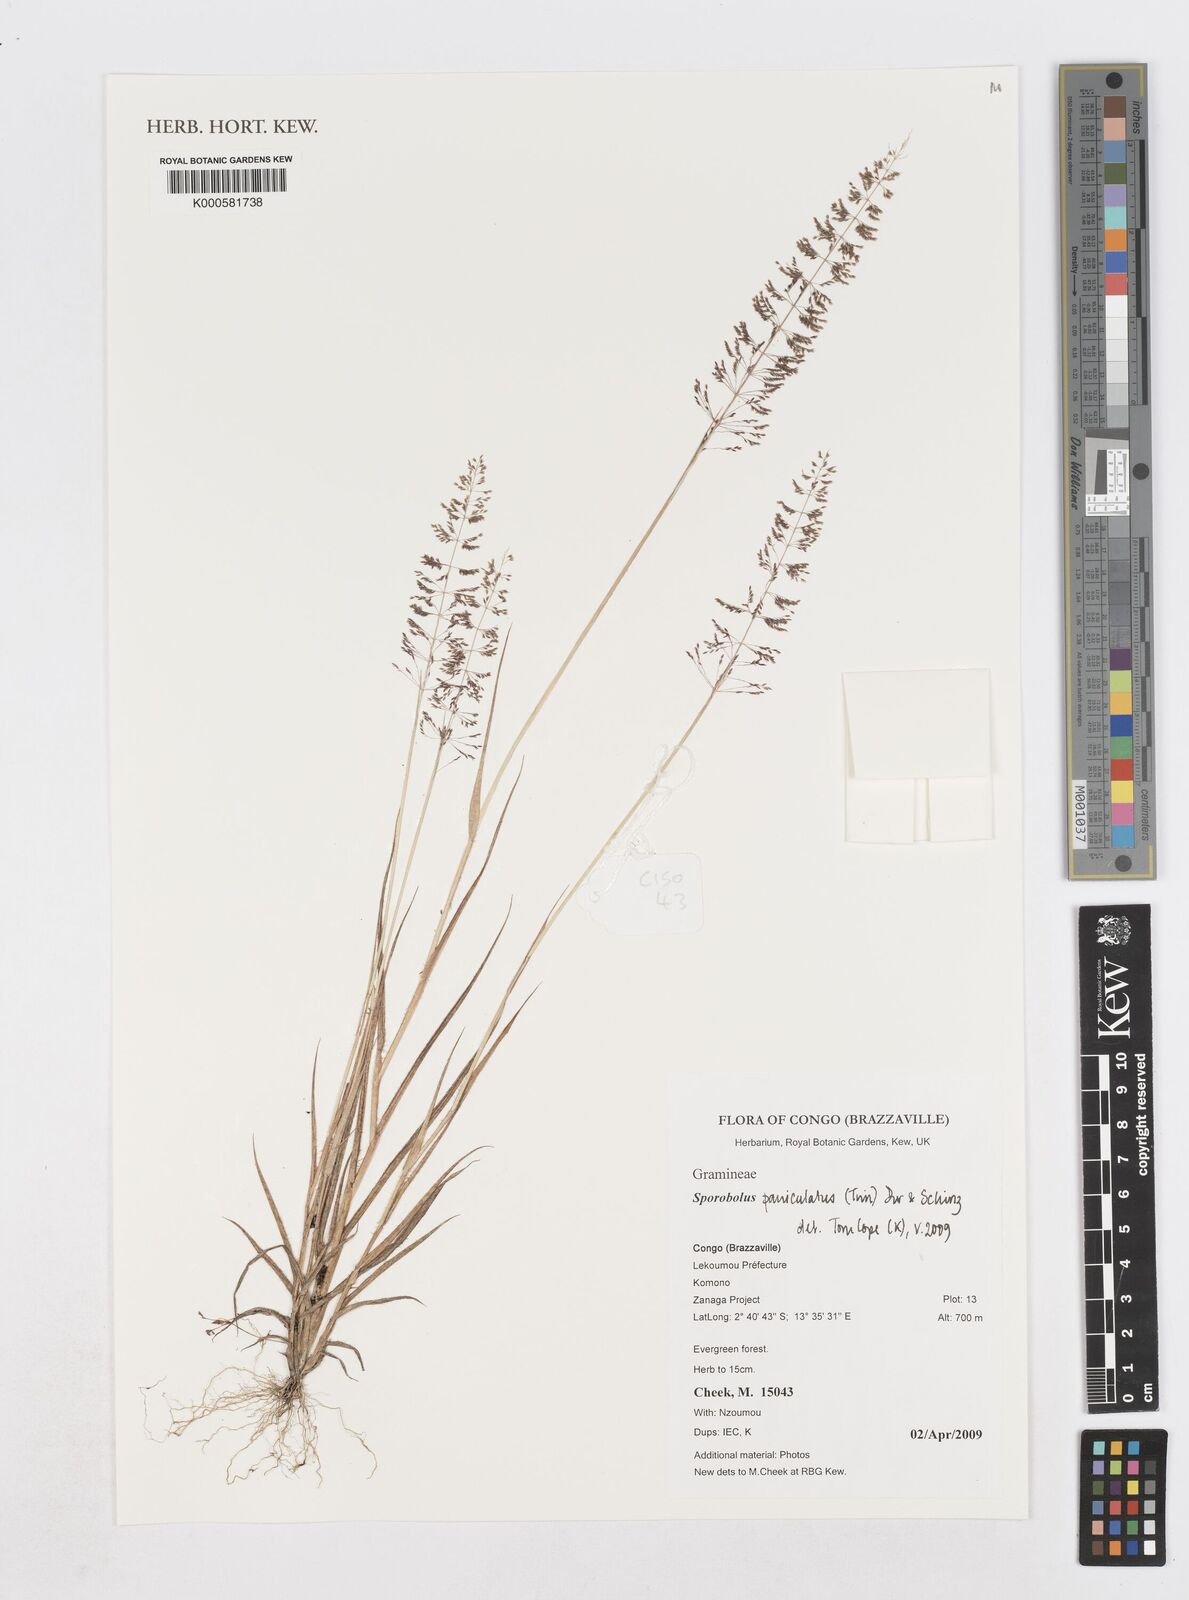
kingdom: Plantae
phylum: Tracheophyta
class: Liliopsida
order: Poales
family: Poaceae
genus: Sporobolus
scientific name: Sporobolus paniculatus
